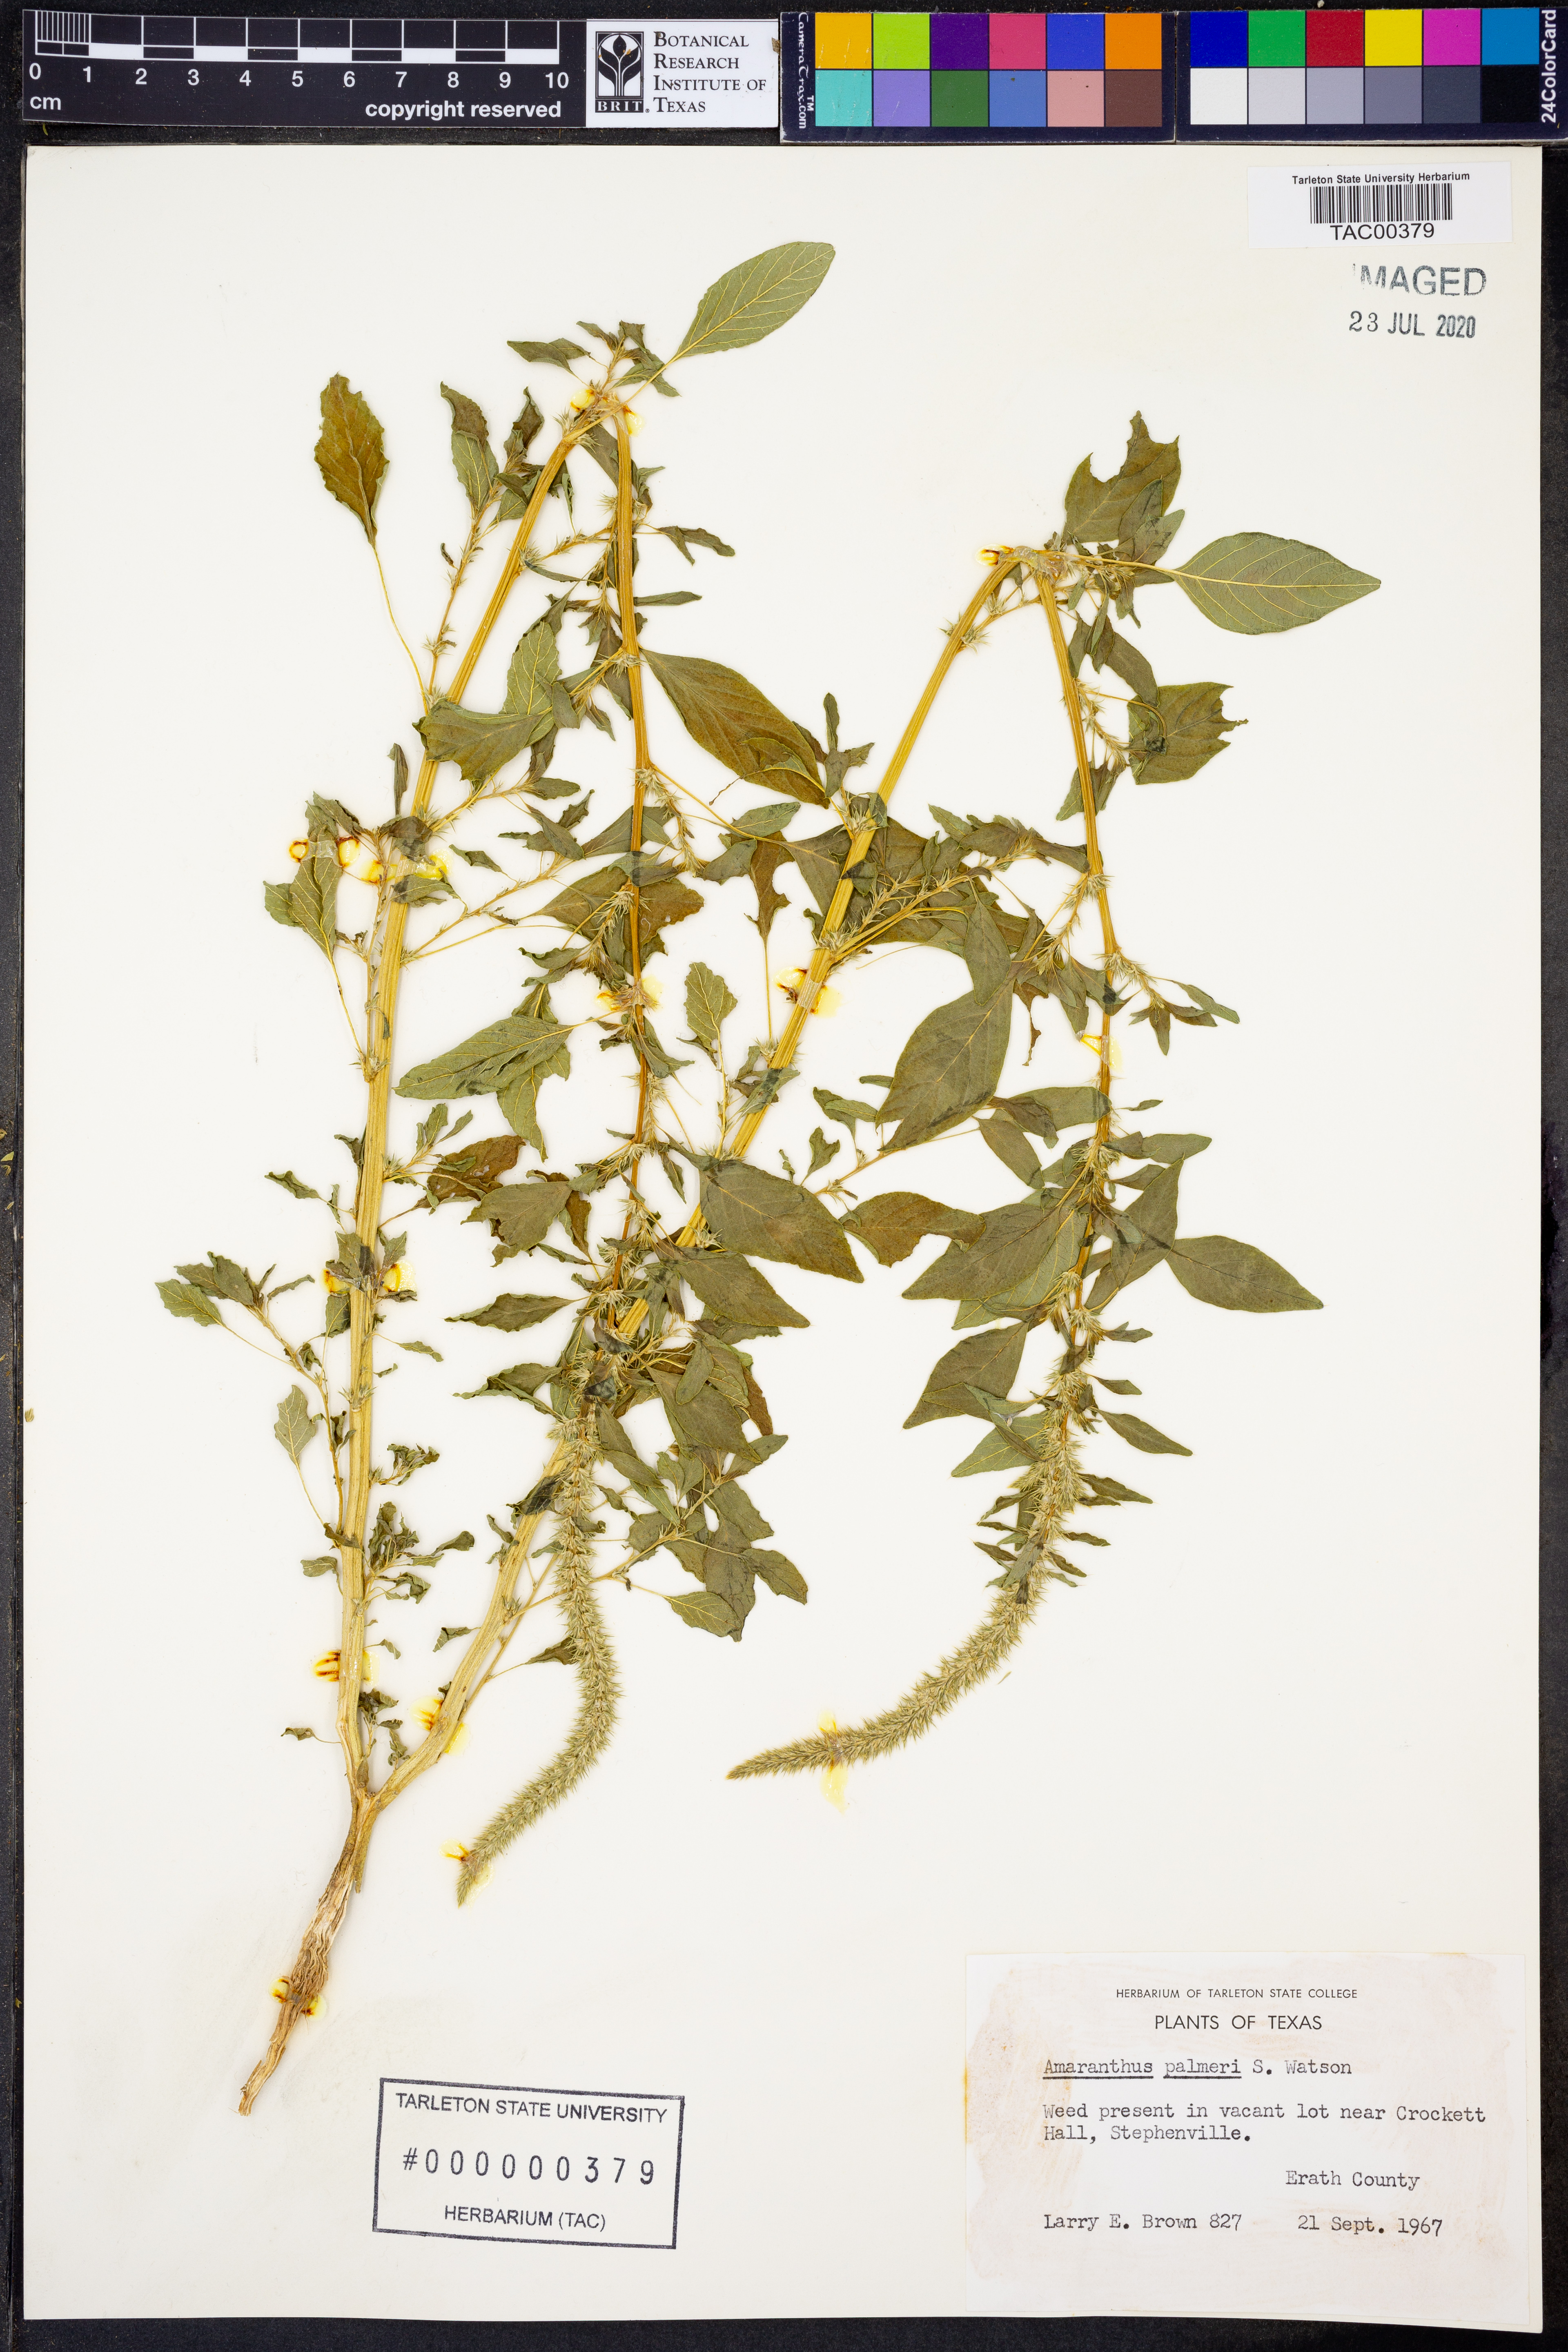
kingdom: Plantae
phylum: Tracheophyta
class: Magnoliopsida
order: Caryophyllales
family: Amaranthaceae
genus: Amaranthus
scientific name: Amaranthus palmeri
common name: Dioecious amaranth
